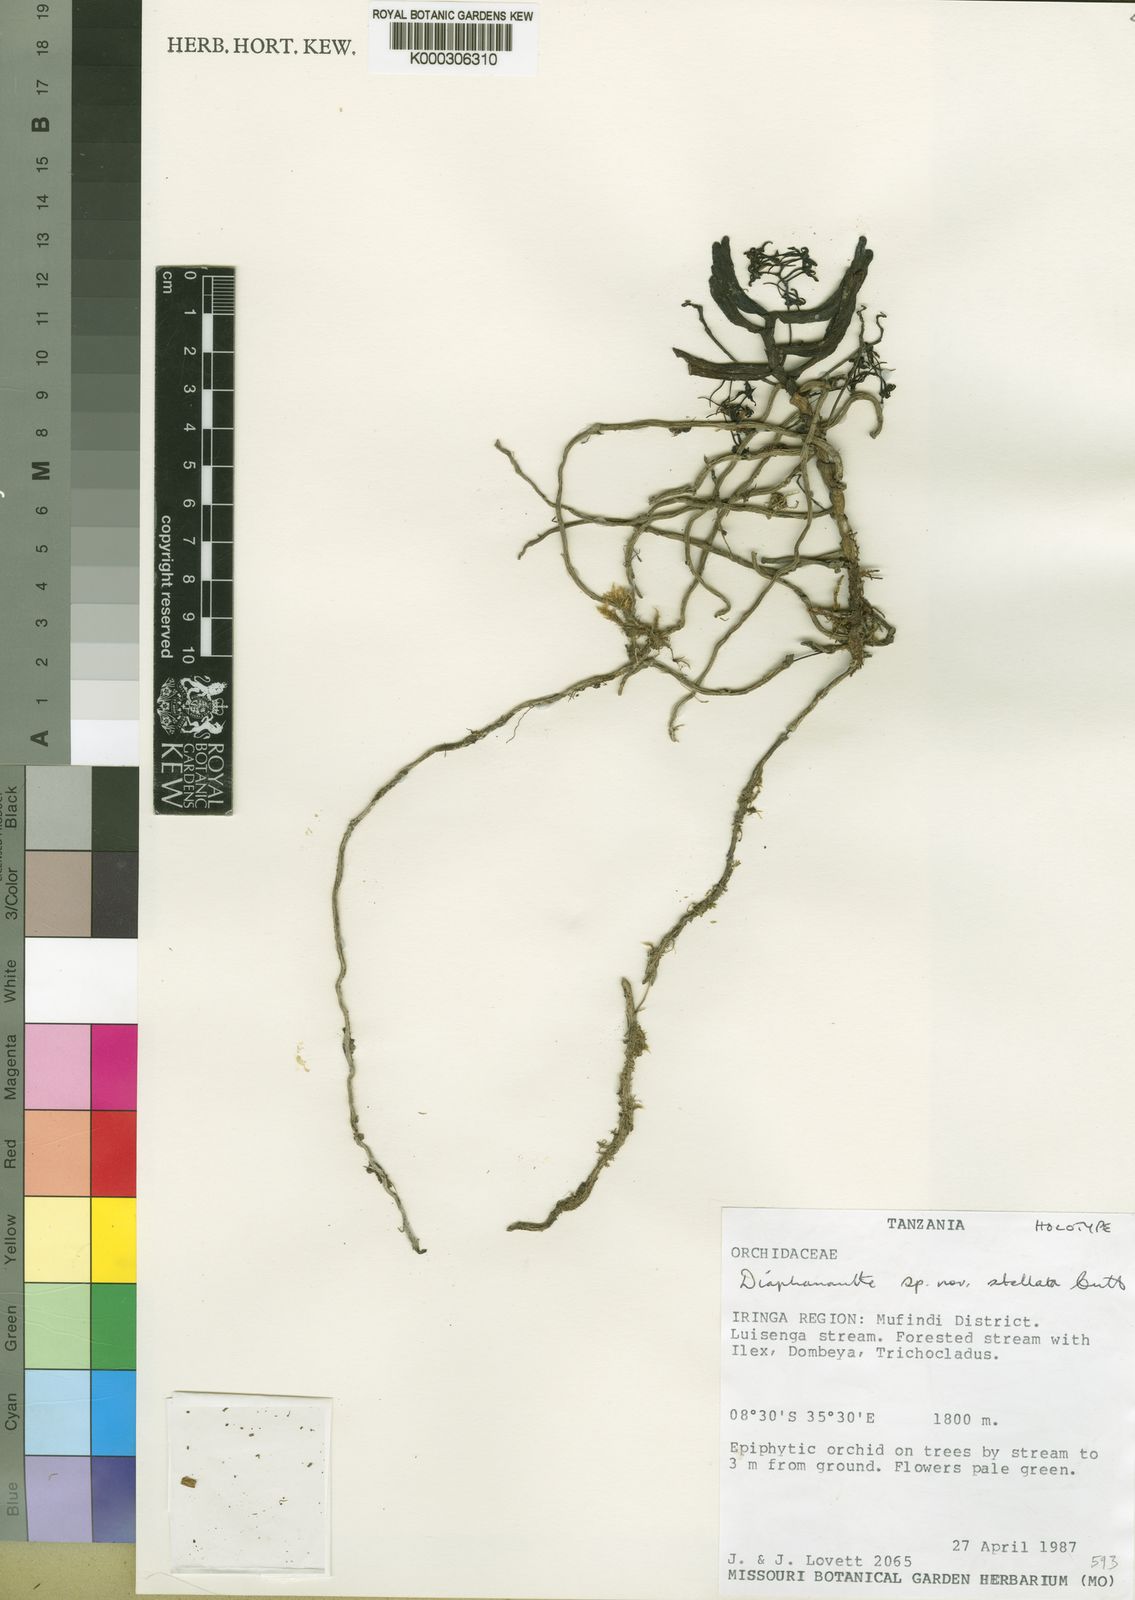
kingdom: Plantae
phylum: Tracheophyta
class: Liliopsida
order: Asparagales
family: Orchidaceae
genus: Rhipidoglossum
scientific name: Rhipidoglossum stellatum
